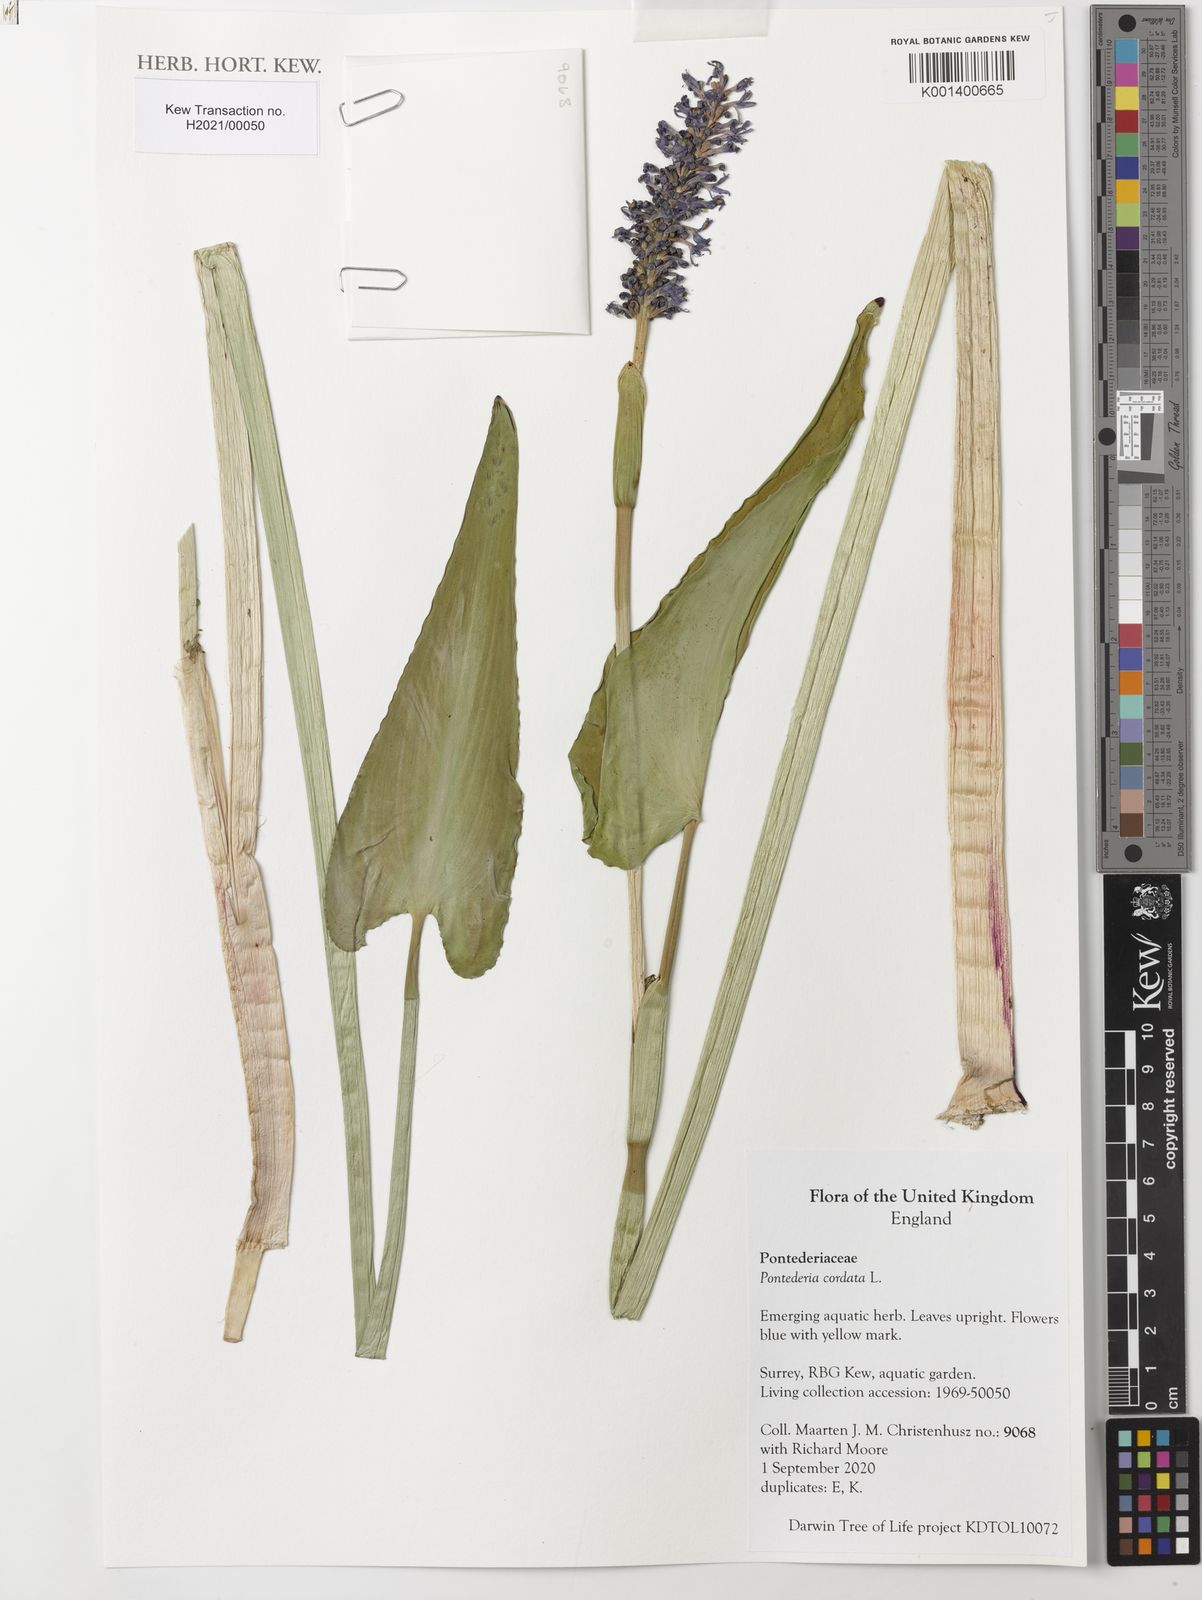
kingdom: Plantae
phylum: Tracheophyta
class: Liliopsida
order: Commelinales
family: Pontederiaceae
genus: Pontederia
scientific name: Pontederia cordata
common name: Pickerelweed
